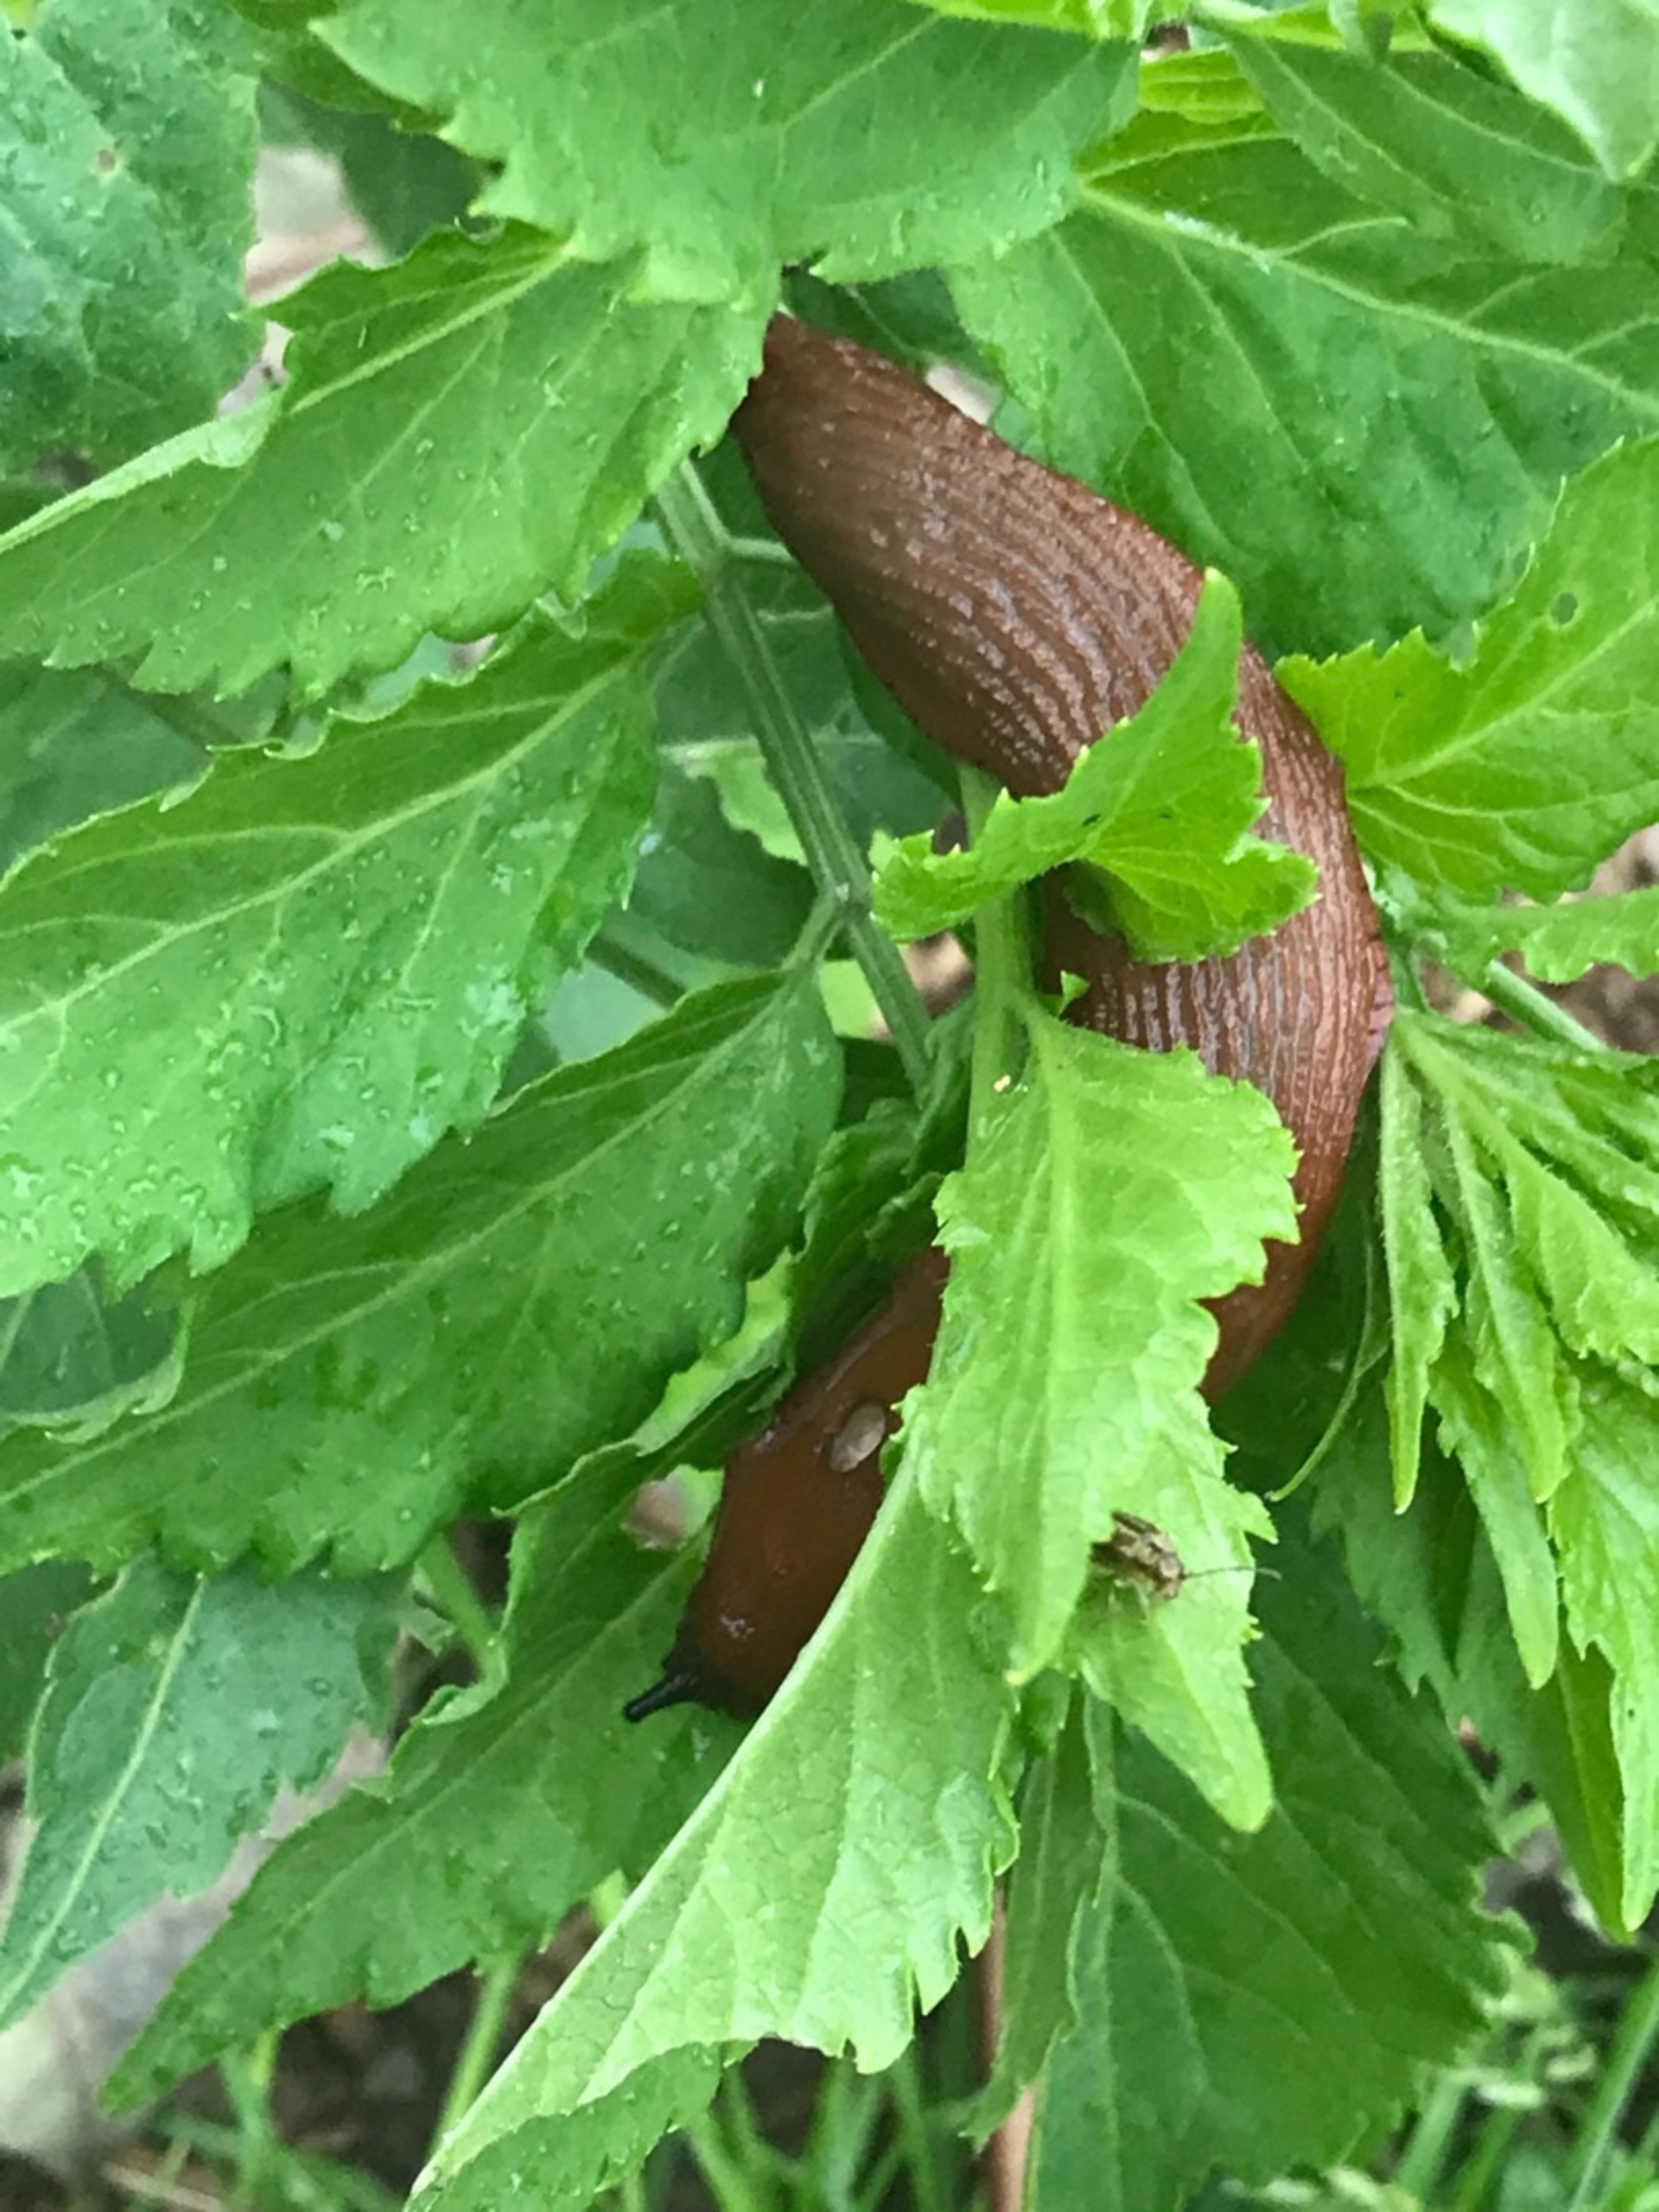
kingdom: Animalia
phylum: Mollusca
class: Gastropoda
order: Stylommatophora
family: Arionidae
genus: Arion
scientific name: Arion vulgaris
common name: Iberisk skovsnegl
